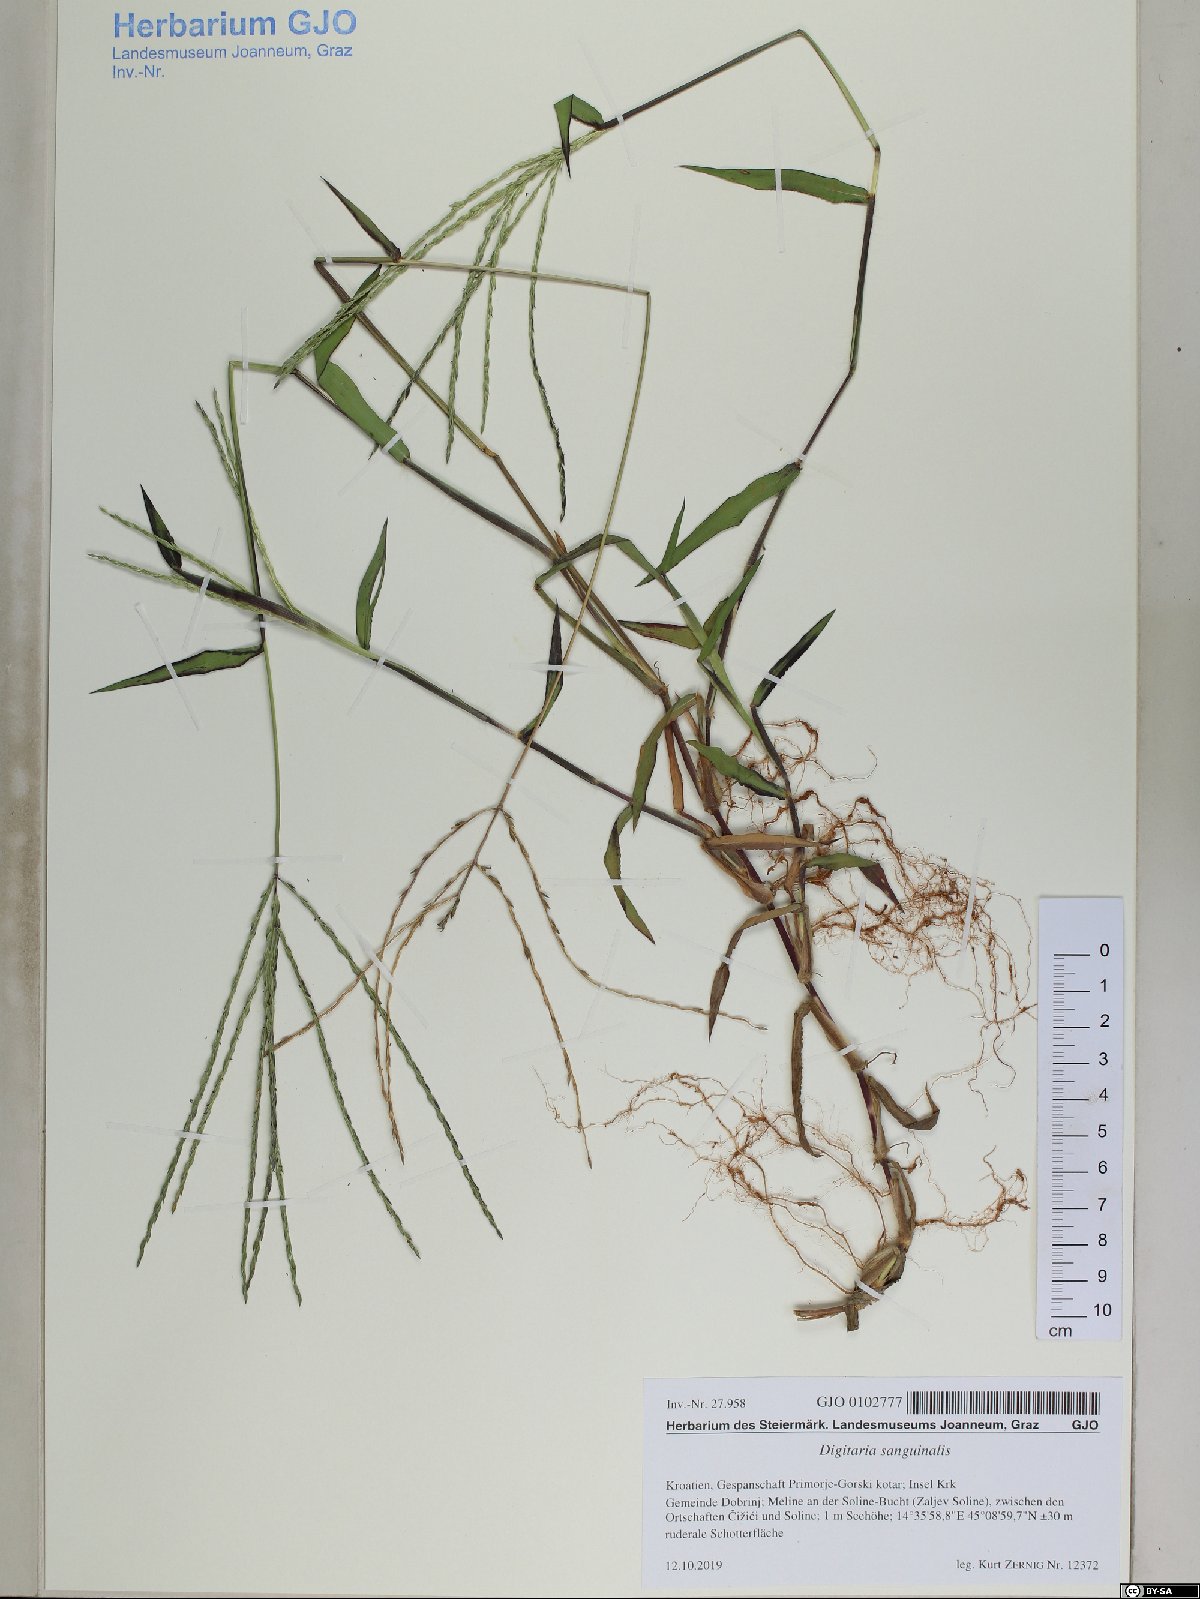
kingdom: Plantae
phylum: Tracheophyta
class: Liliopsida
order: Poales
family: Poaceae
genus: Digitaria
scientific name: Digitaria sanguinalis
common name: Hairy crabgrass
